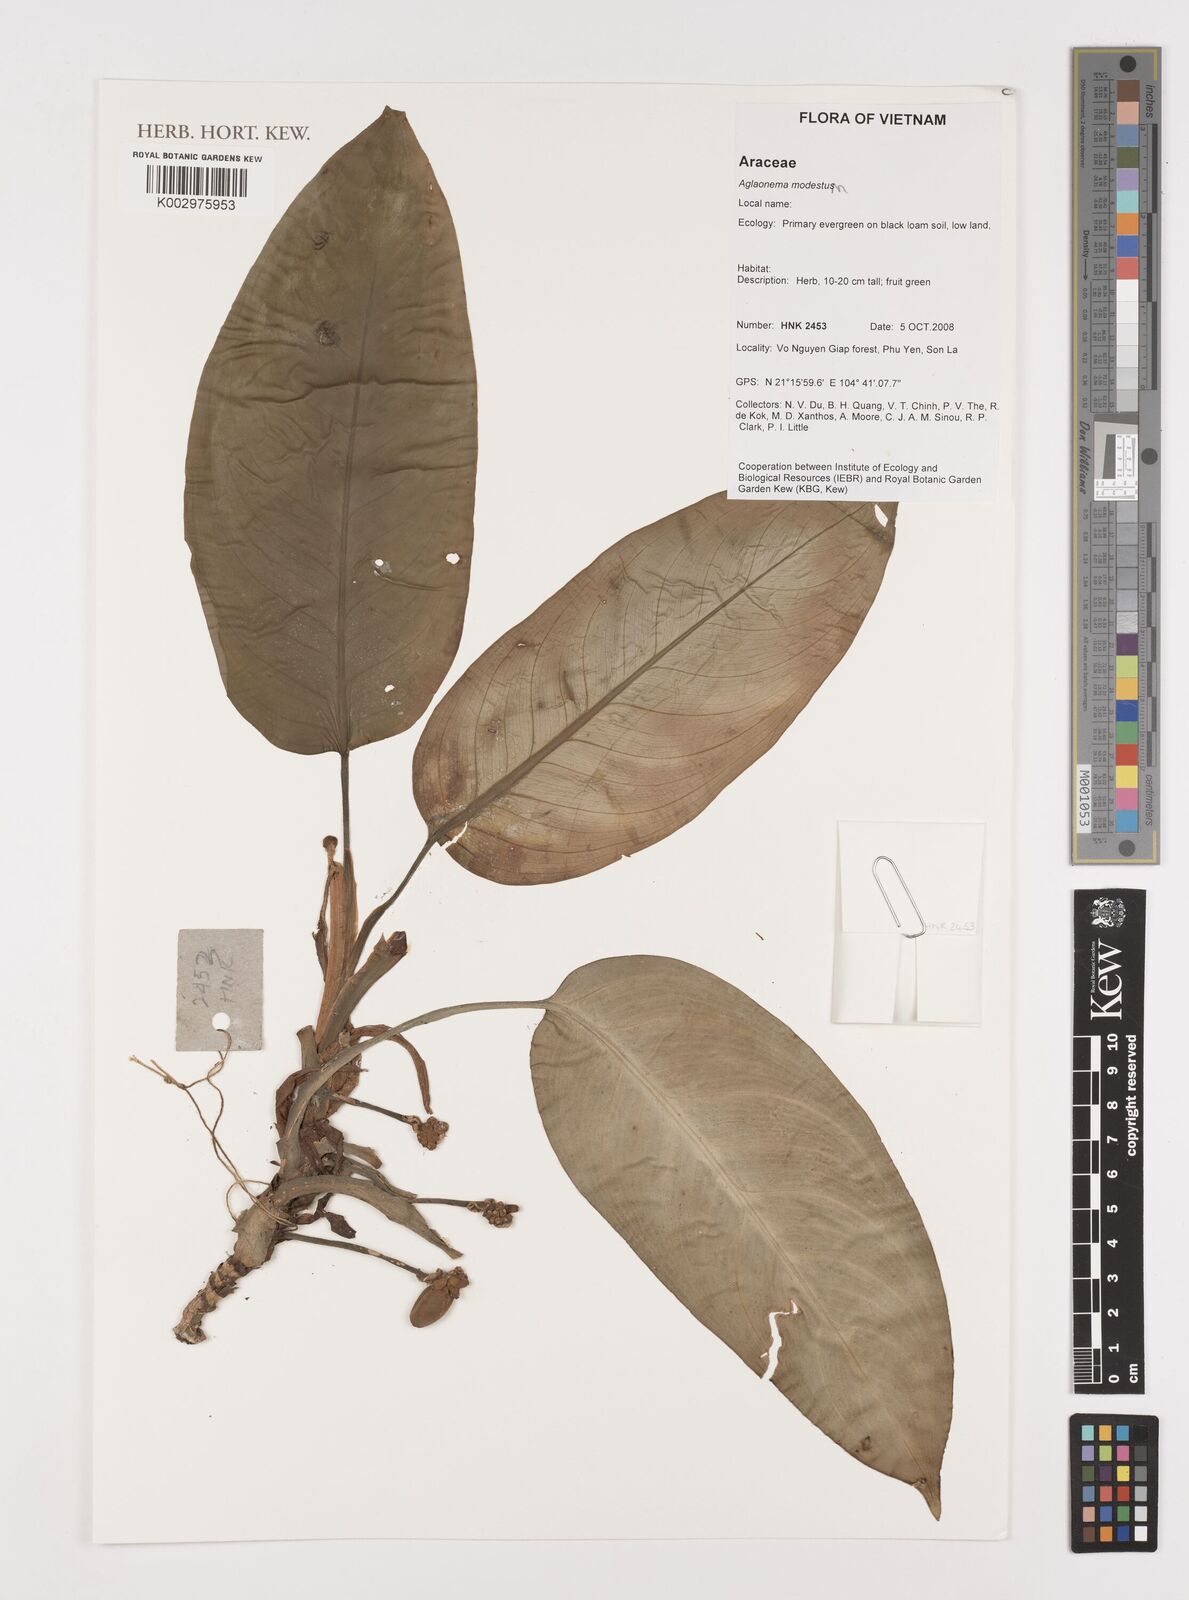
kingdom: Plantae
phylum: Tracheophyta
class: Liliopsida
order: Alismatales
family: Araceae
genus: Aglaonema
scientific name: Aglaonema modestum
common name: Chinese evergreen
